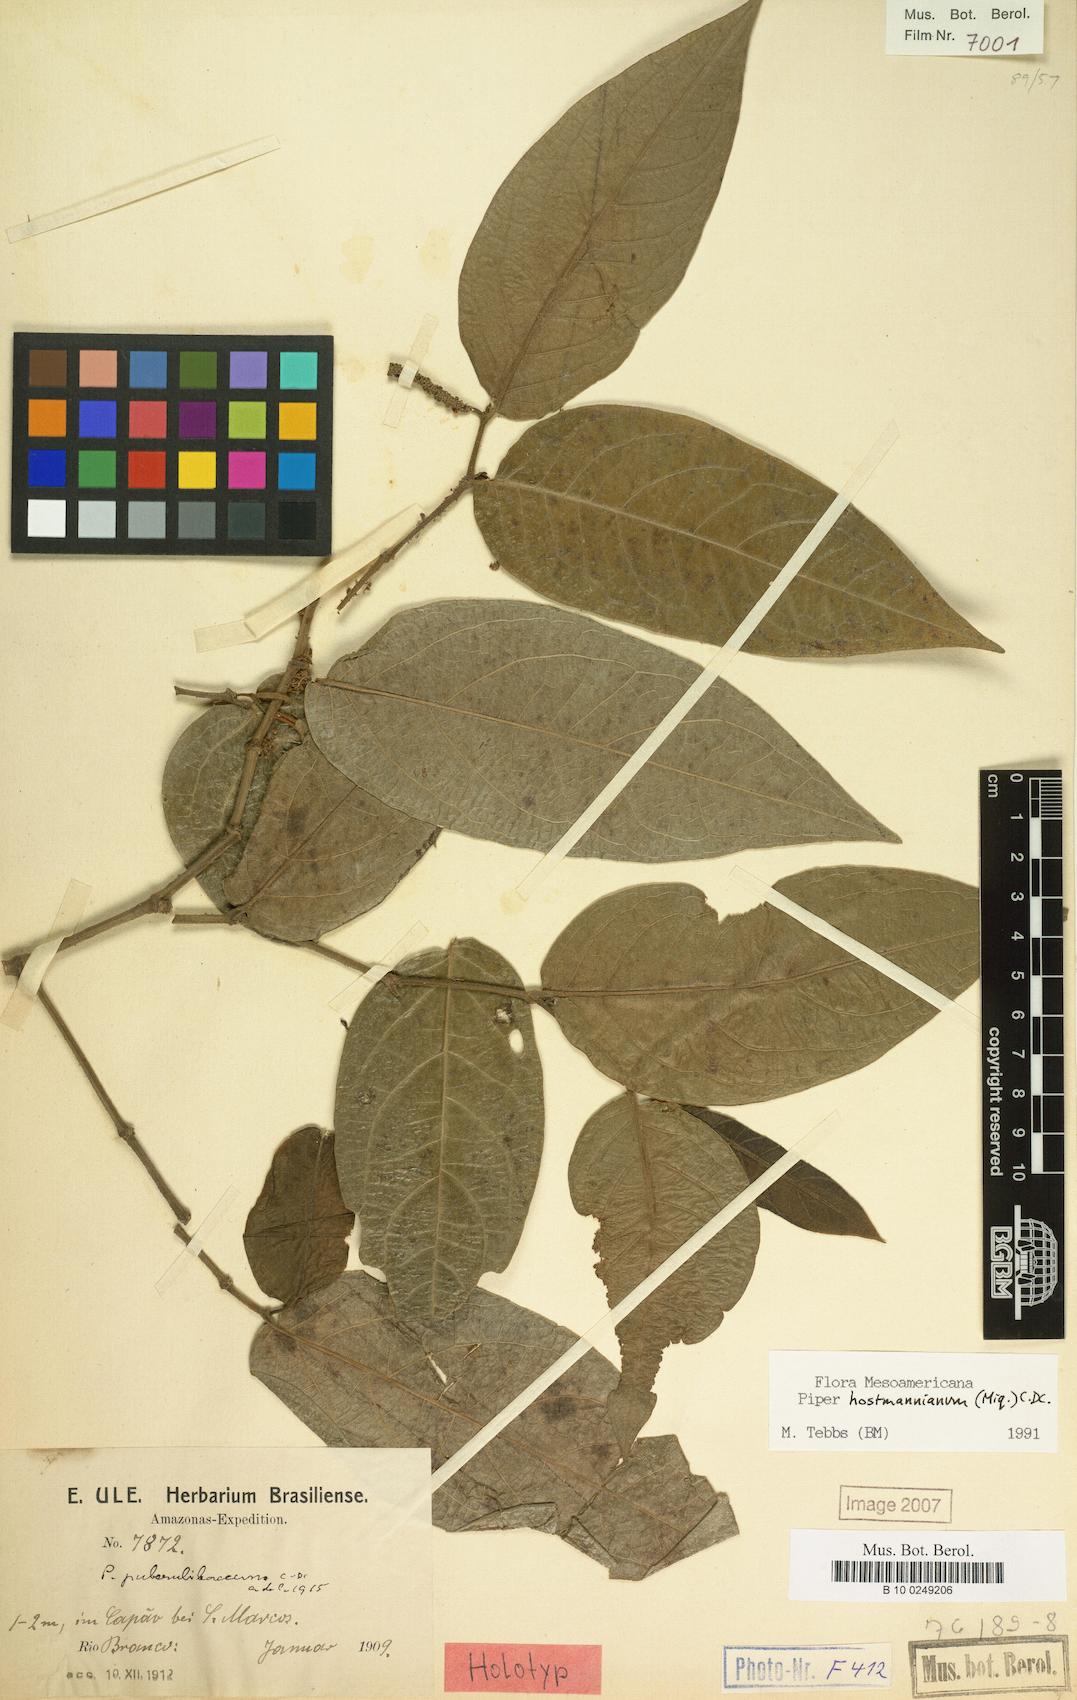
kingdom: Plantae
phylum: Tracheophyta
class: Magnoliopsida
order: Piperales
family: Piperaceae
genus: Piper
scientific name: Piper hostmannianum
